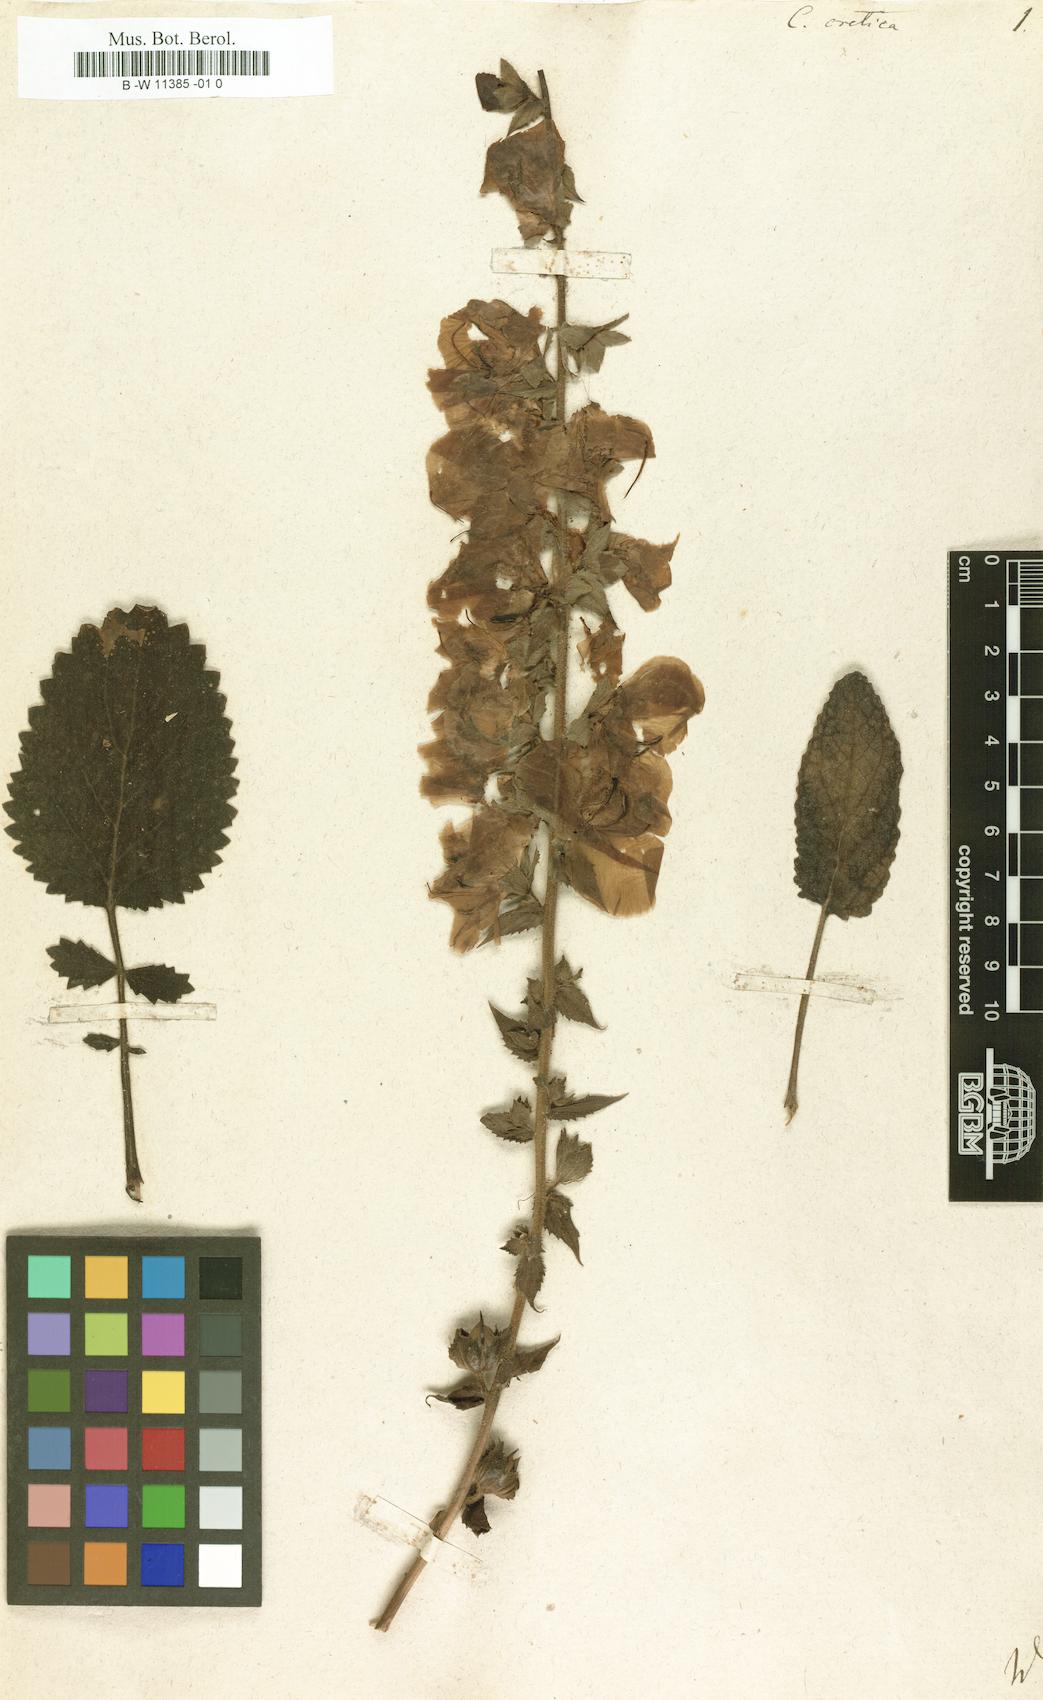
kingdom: Plantae
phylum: Tracheophyta
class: Magnoliopsida
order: Lamiales
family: Scrophulariaceae
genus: Verbascum
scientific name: Verbascum creticum
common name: Cretan mullein
